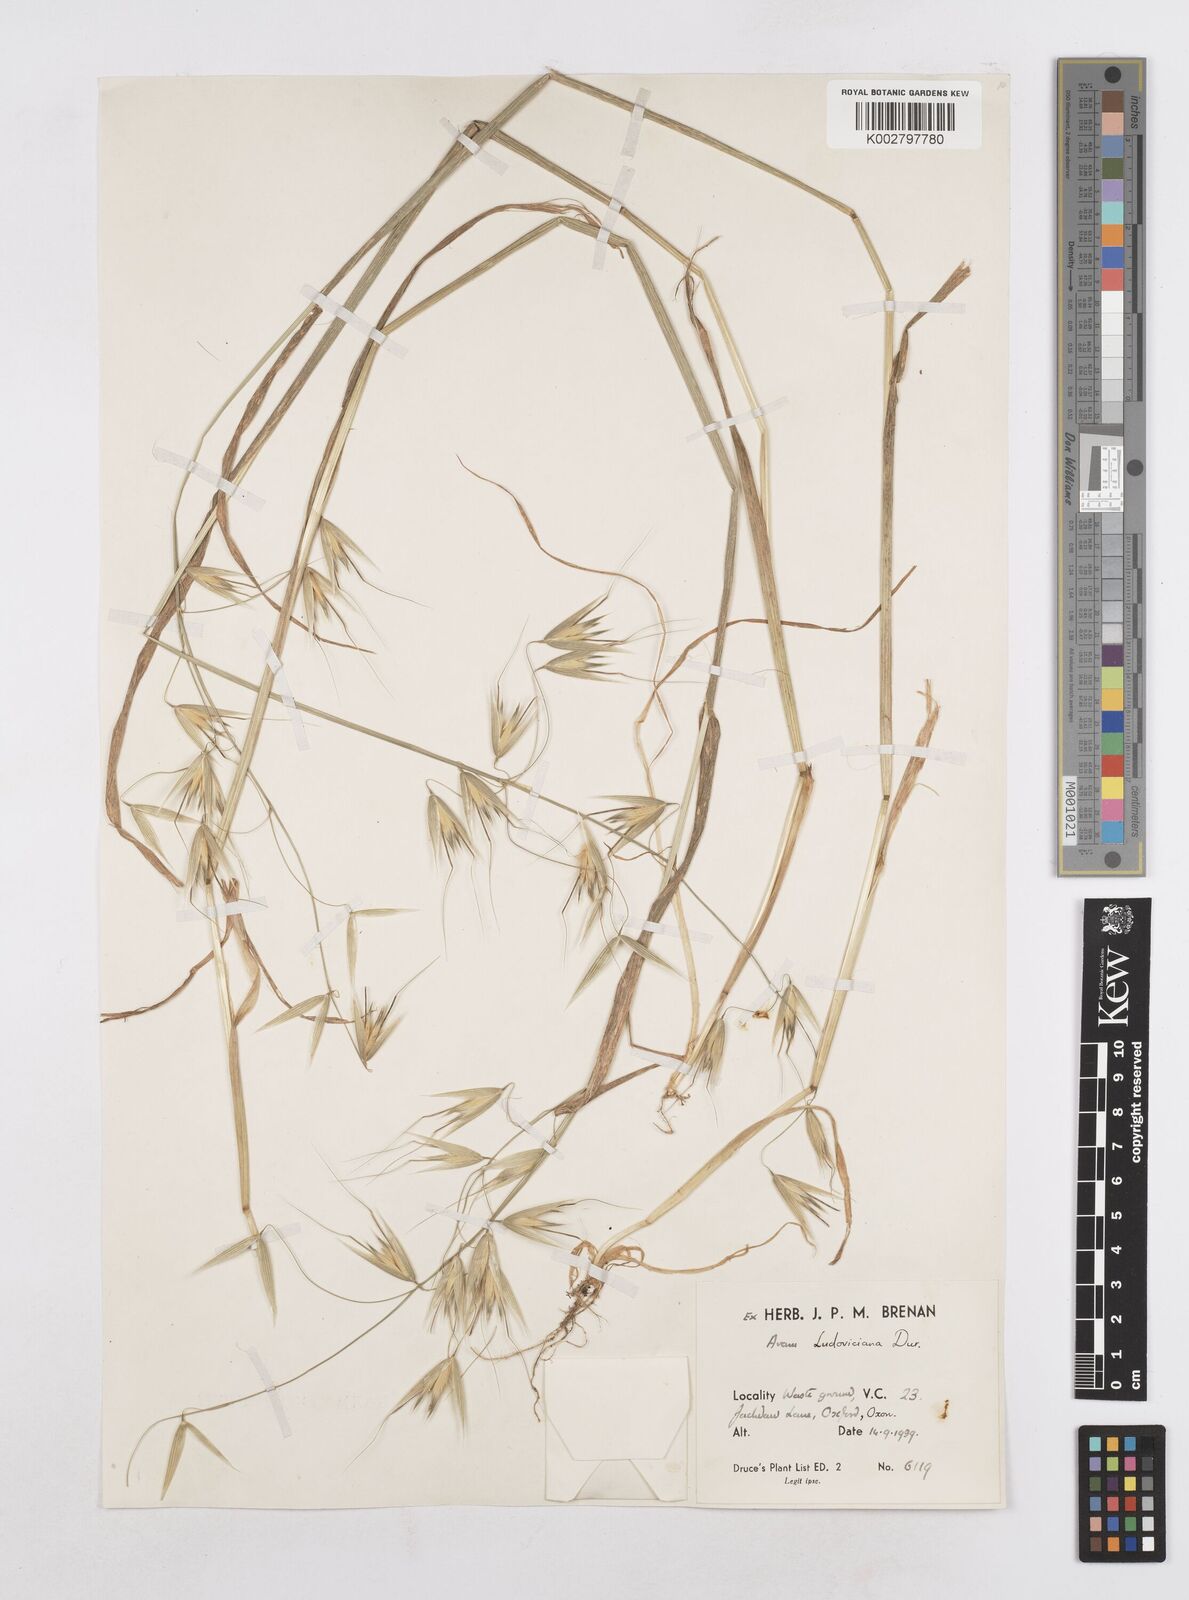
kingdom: Plantae
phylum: Tracheophyta
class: Liliopsida
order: Poales
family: Poaceae
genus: Avena
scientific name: Avena sterilis
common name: Animated oat
